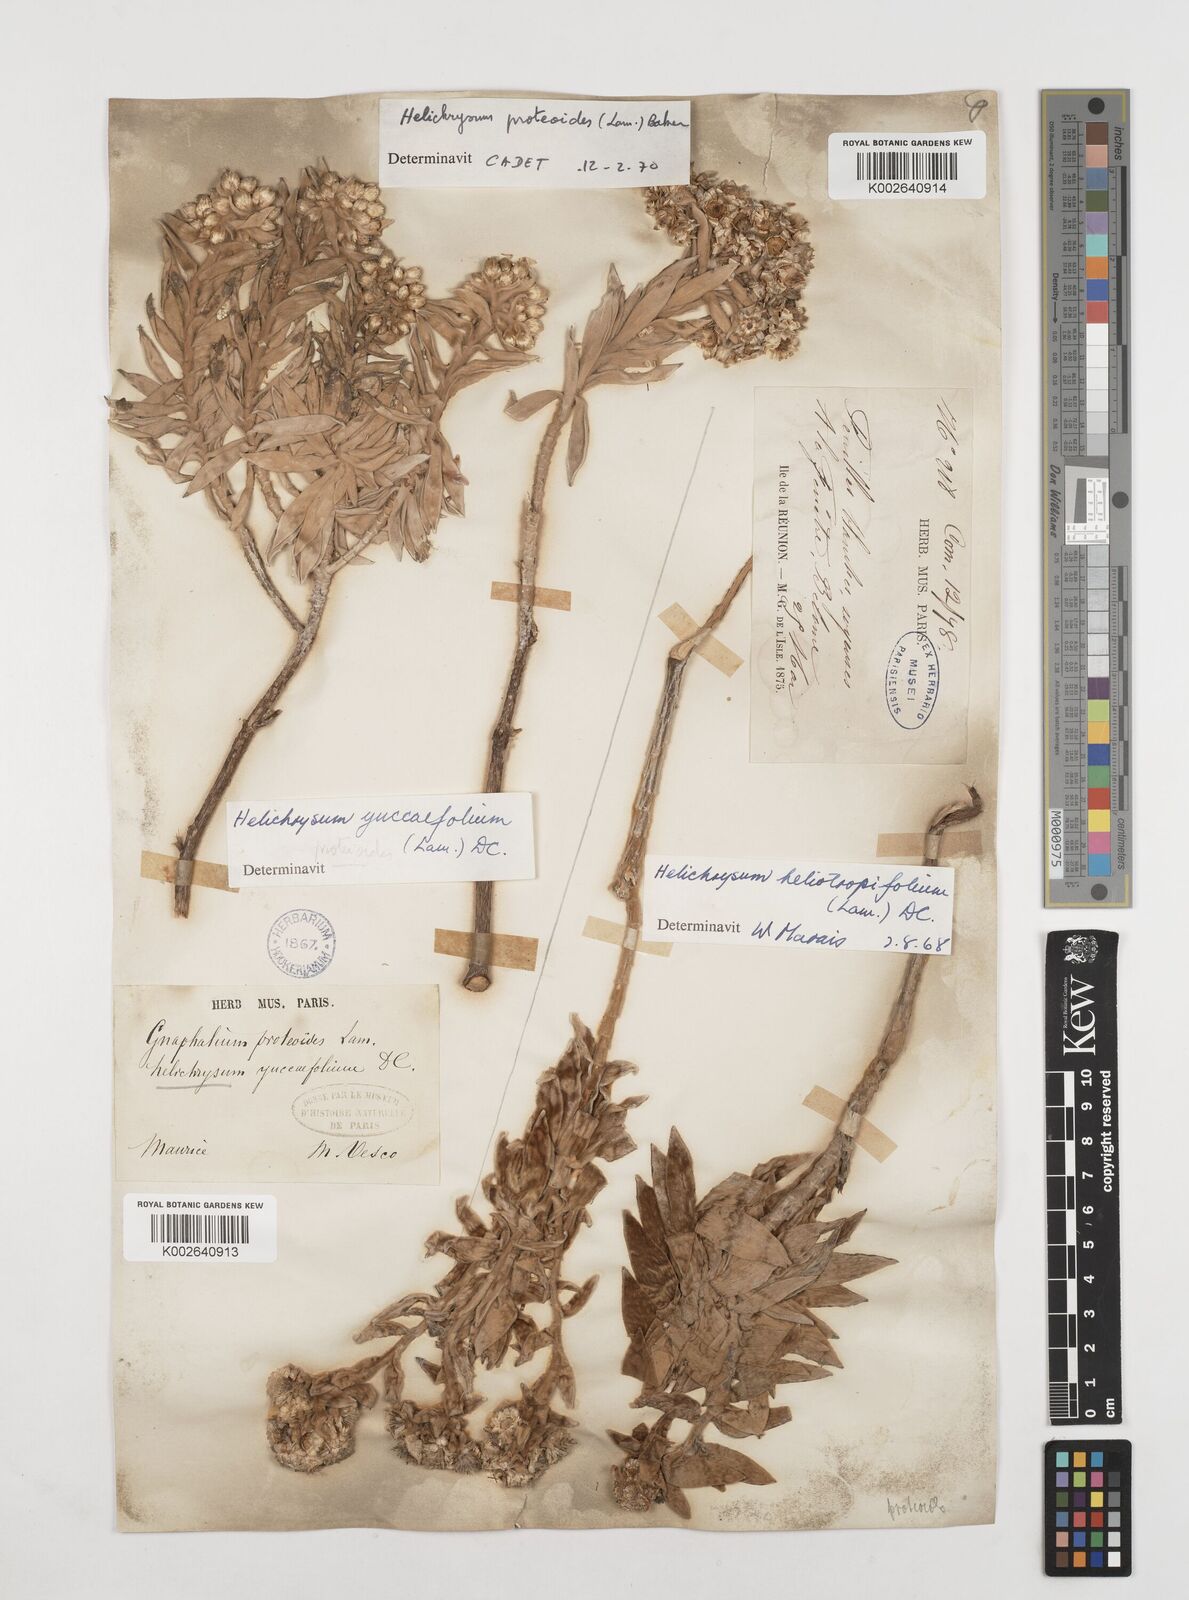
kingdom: Plantae
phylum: Tracheophyta
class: Magnoliopsida
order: Asterales
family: Asteraceae
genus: Helichrysum
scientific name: Helichrysum proteoides
